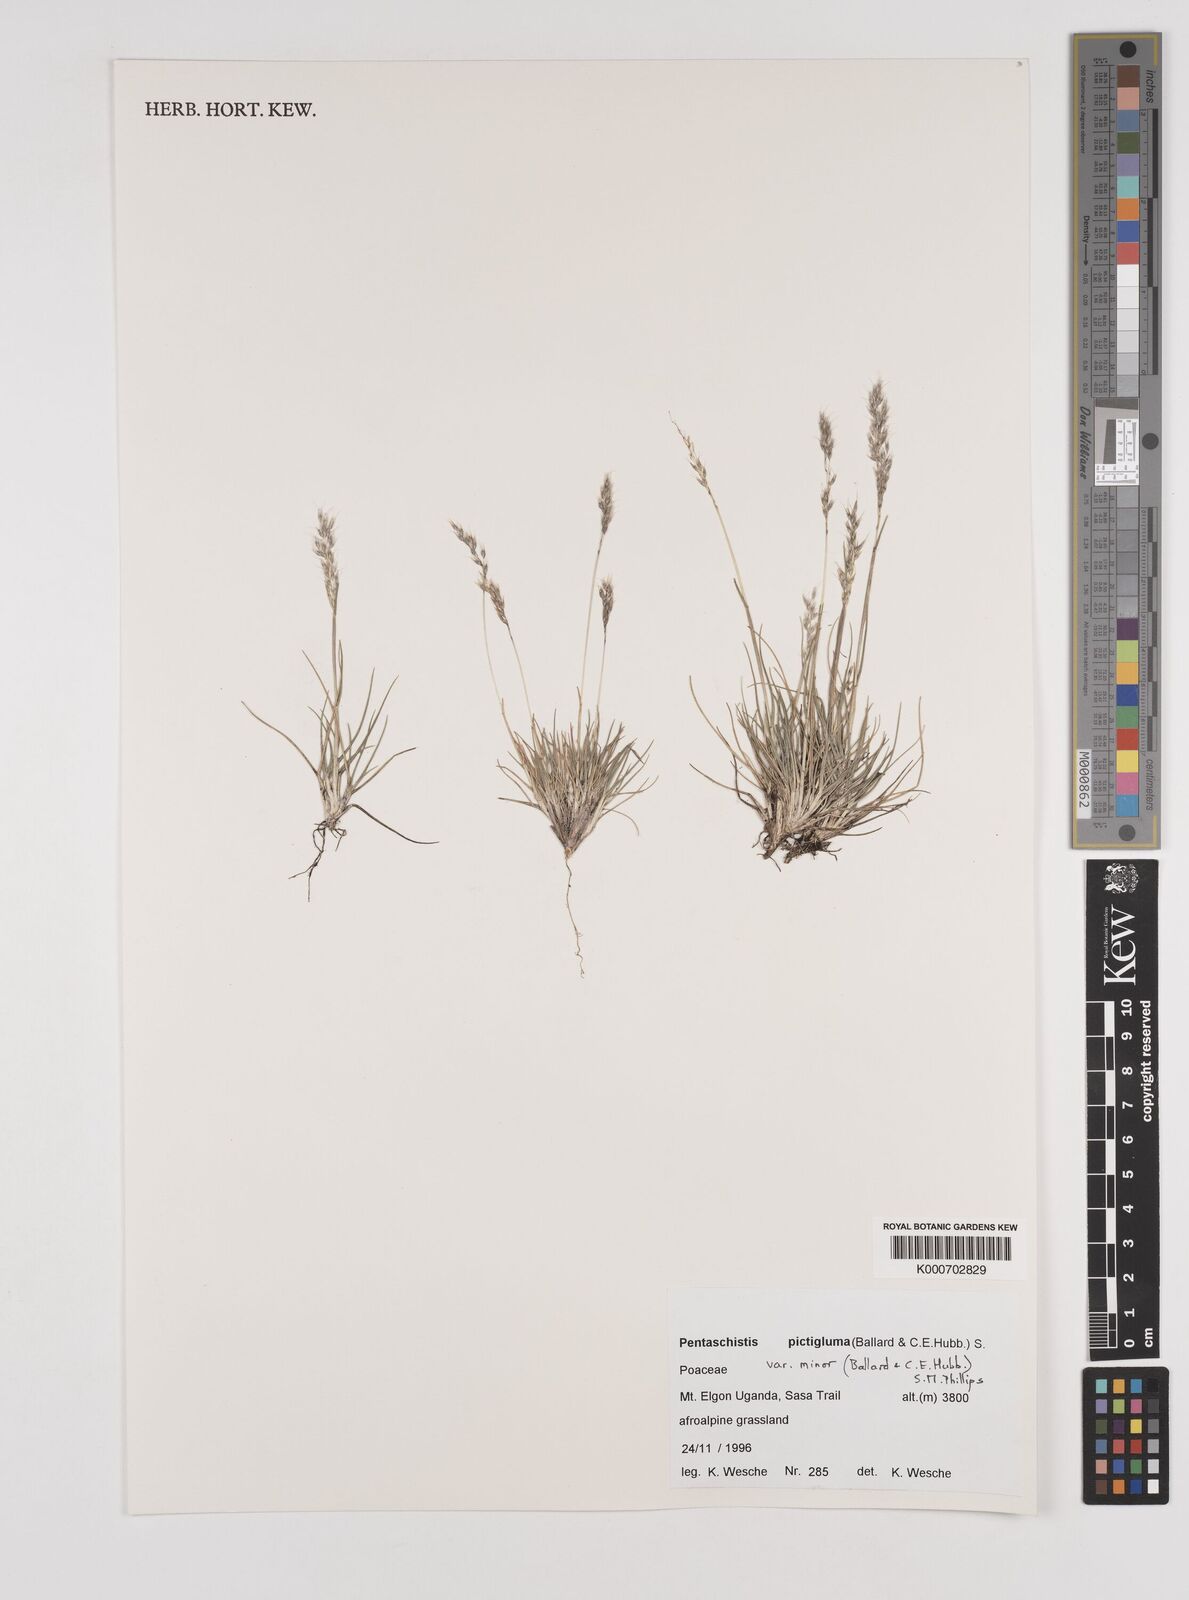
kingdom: Plantae
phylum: Tracheophyta
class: Liliopsida
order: Poales
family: Poaceae
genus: Pentameris
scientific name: Pentameris minor
